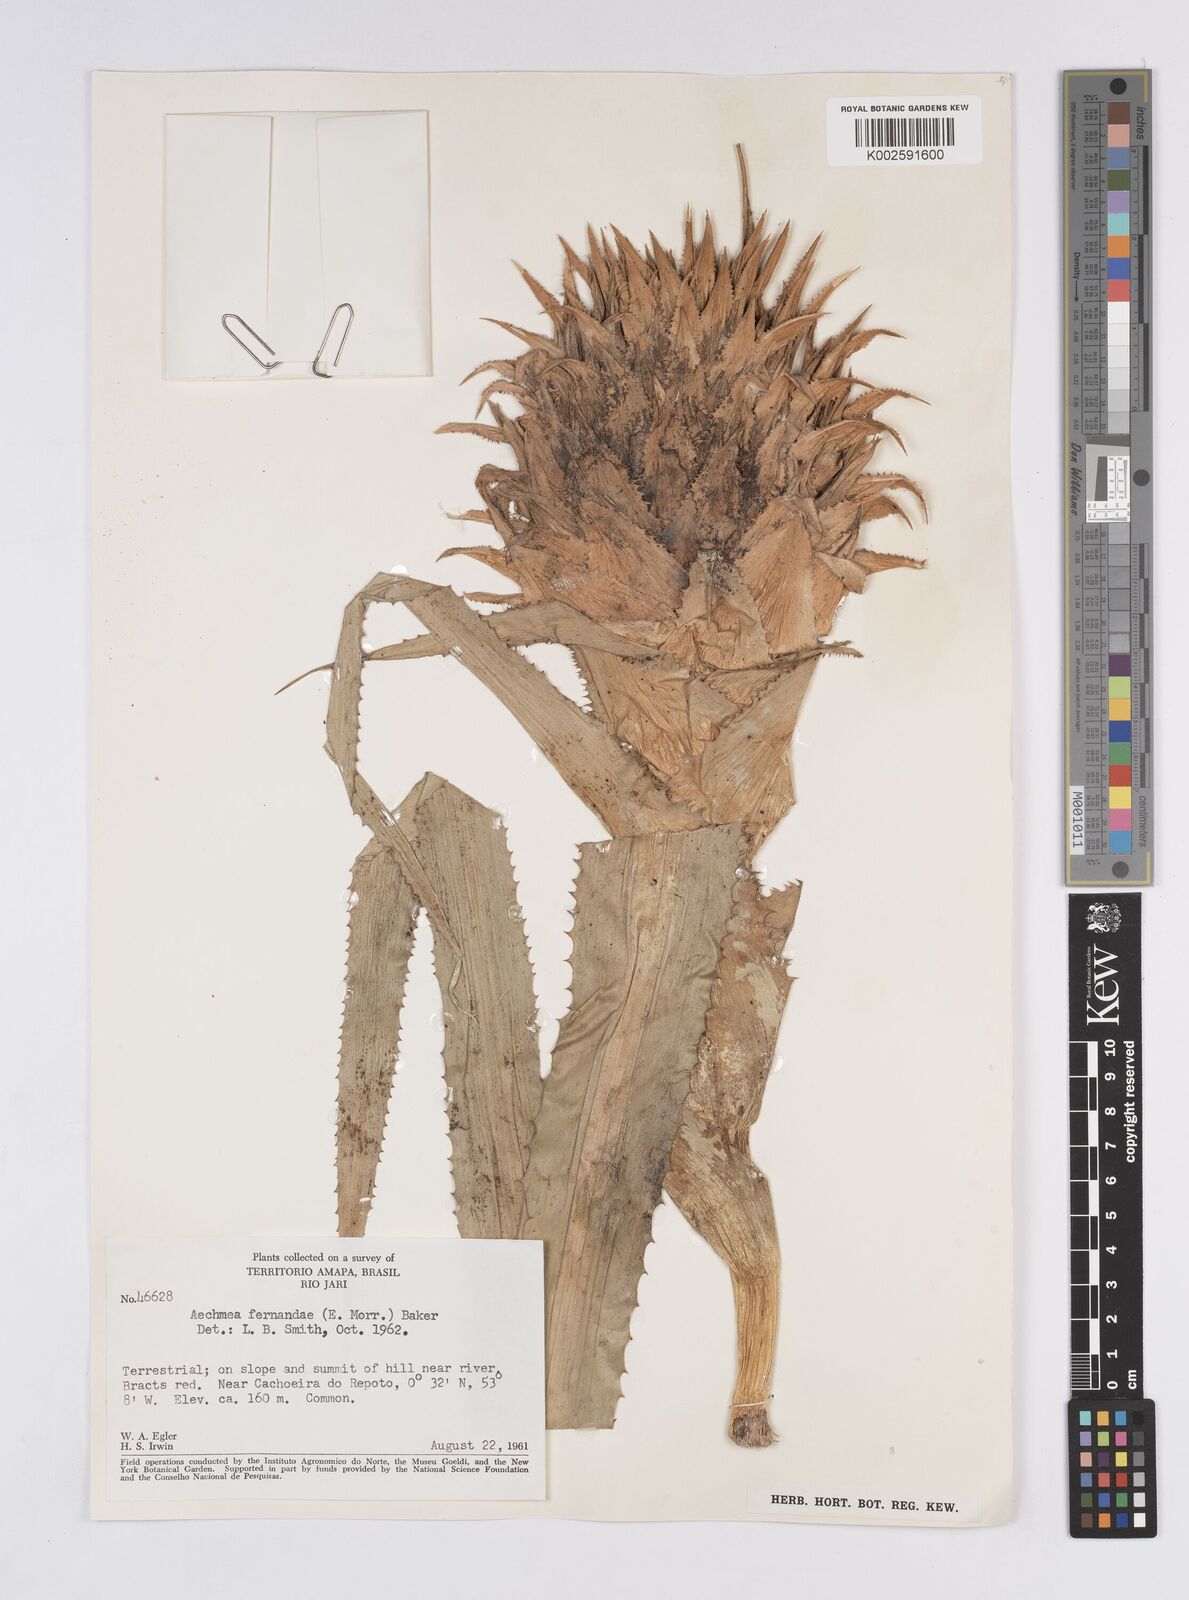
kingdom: Plantae
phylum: Tracheophyta
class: Liliopsida
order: Poales
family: Bromeliaceae
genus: Aechmea
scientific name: Aechmea fernandae
